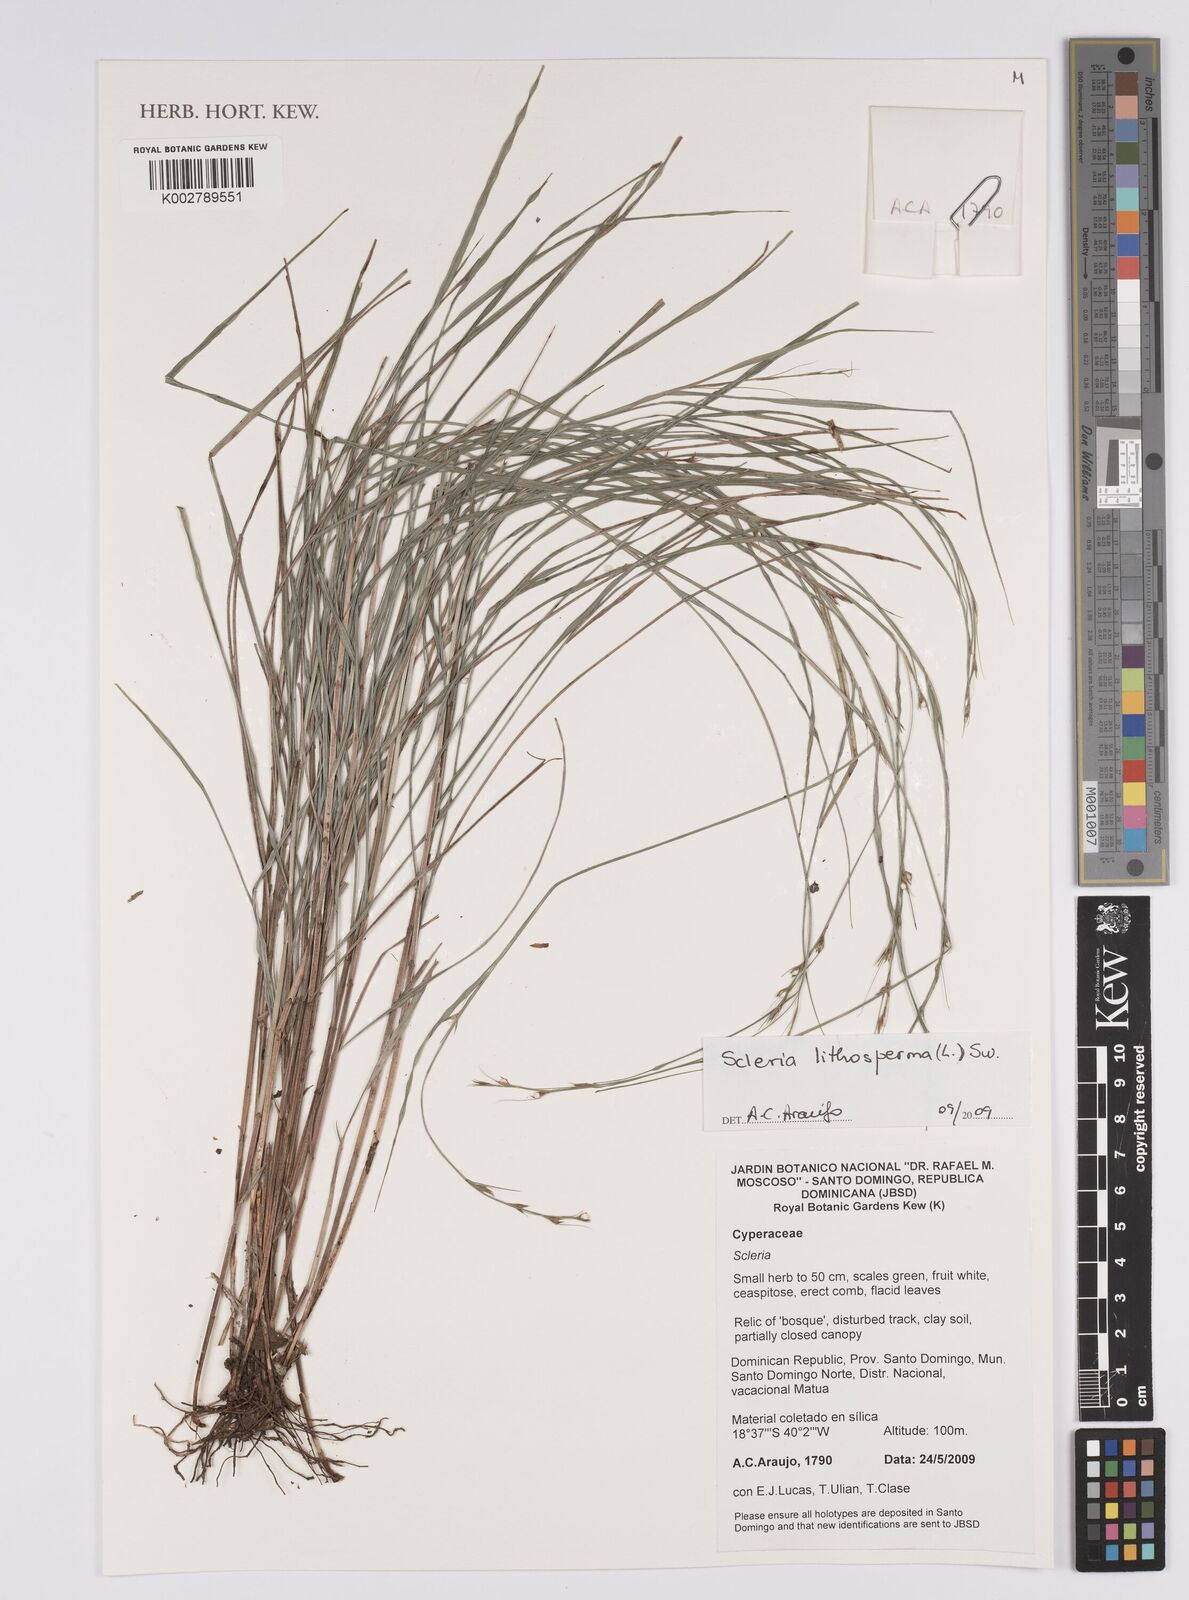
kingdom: Plantae
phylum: Tracheophyta
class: Liliopsida
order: Poales
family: Cyperaceae
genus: Scleria
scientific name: Scleria lithosperma
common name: Florida keys nut-rush
